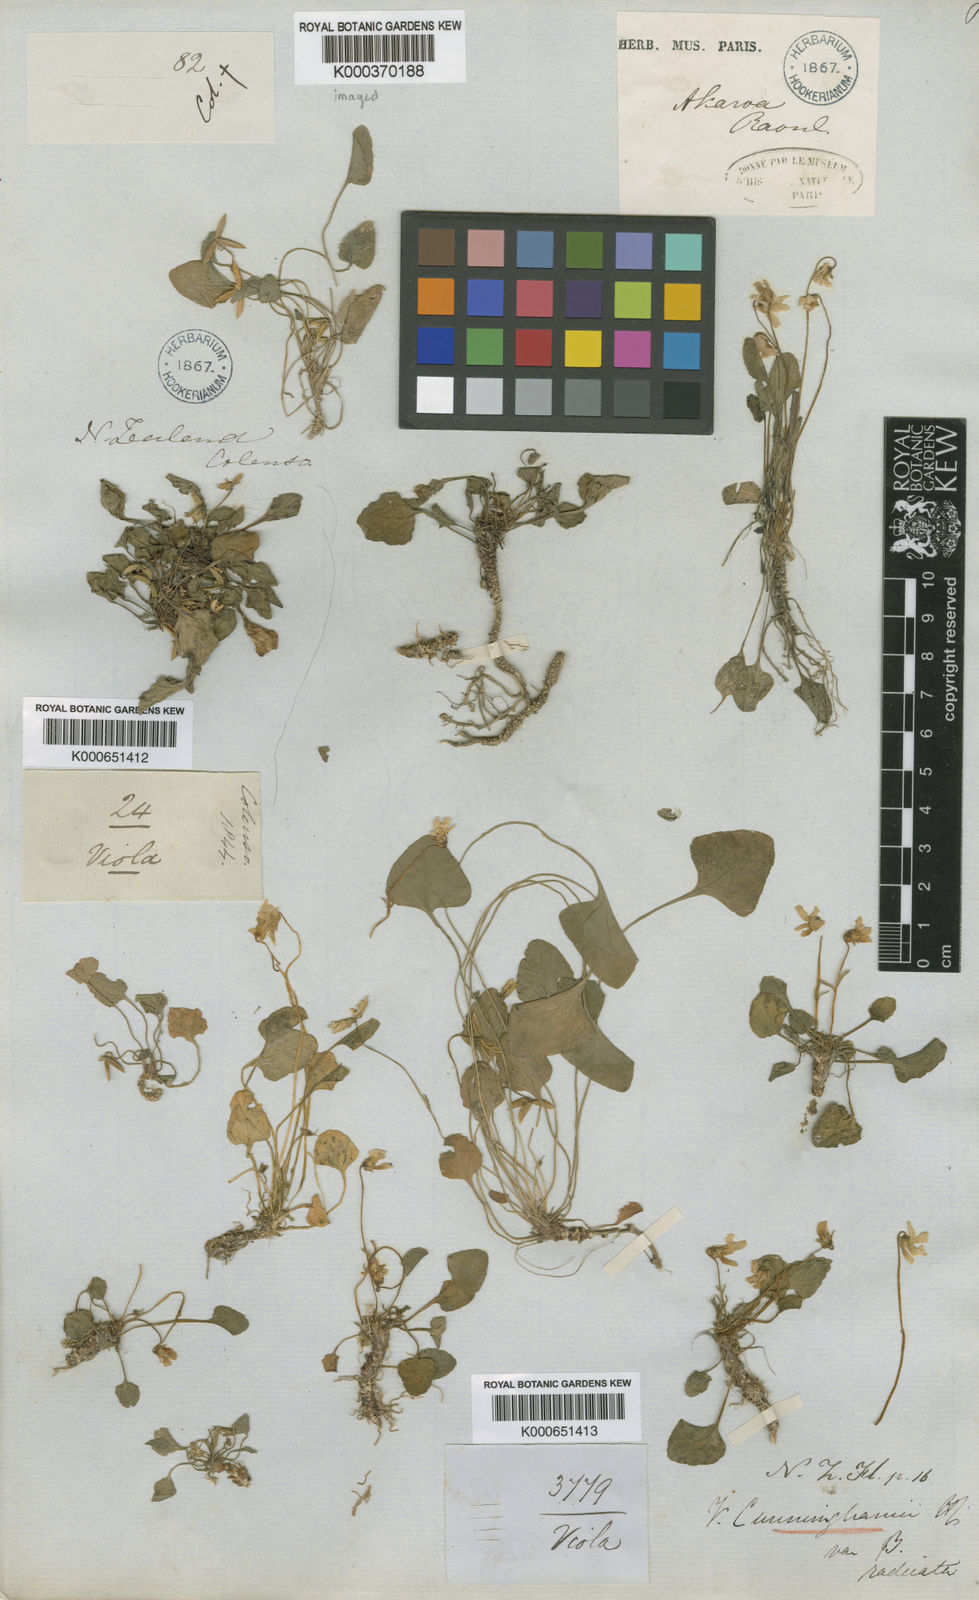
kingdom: Plantae
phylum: Tracheophyta
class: Magnoliopsida
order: Malpighiales
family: Violaceae
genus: Viola
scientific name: Viola cunninghamii
